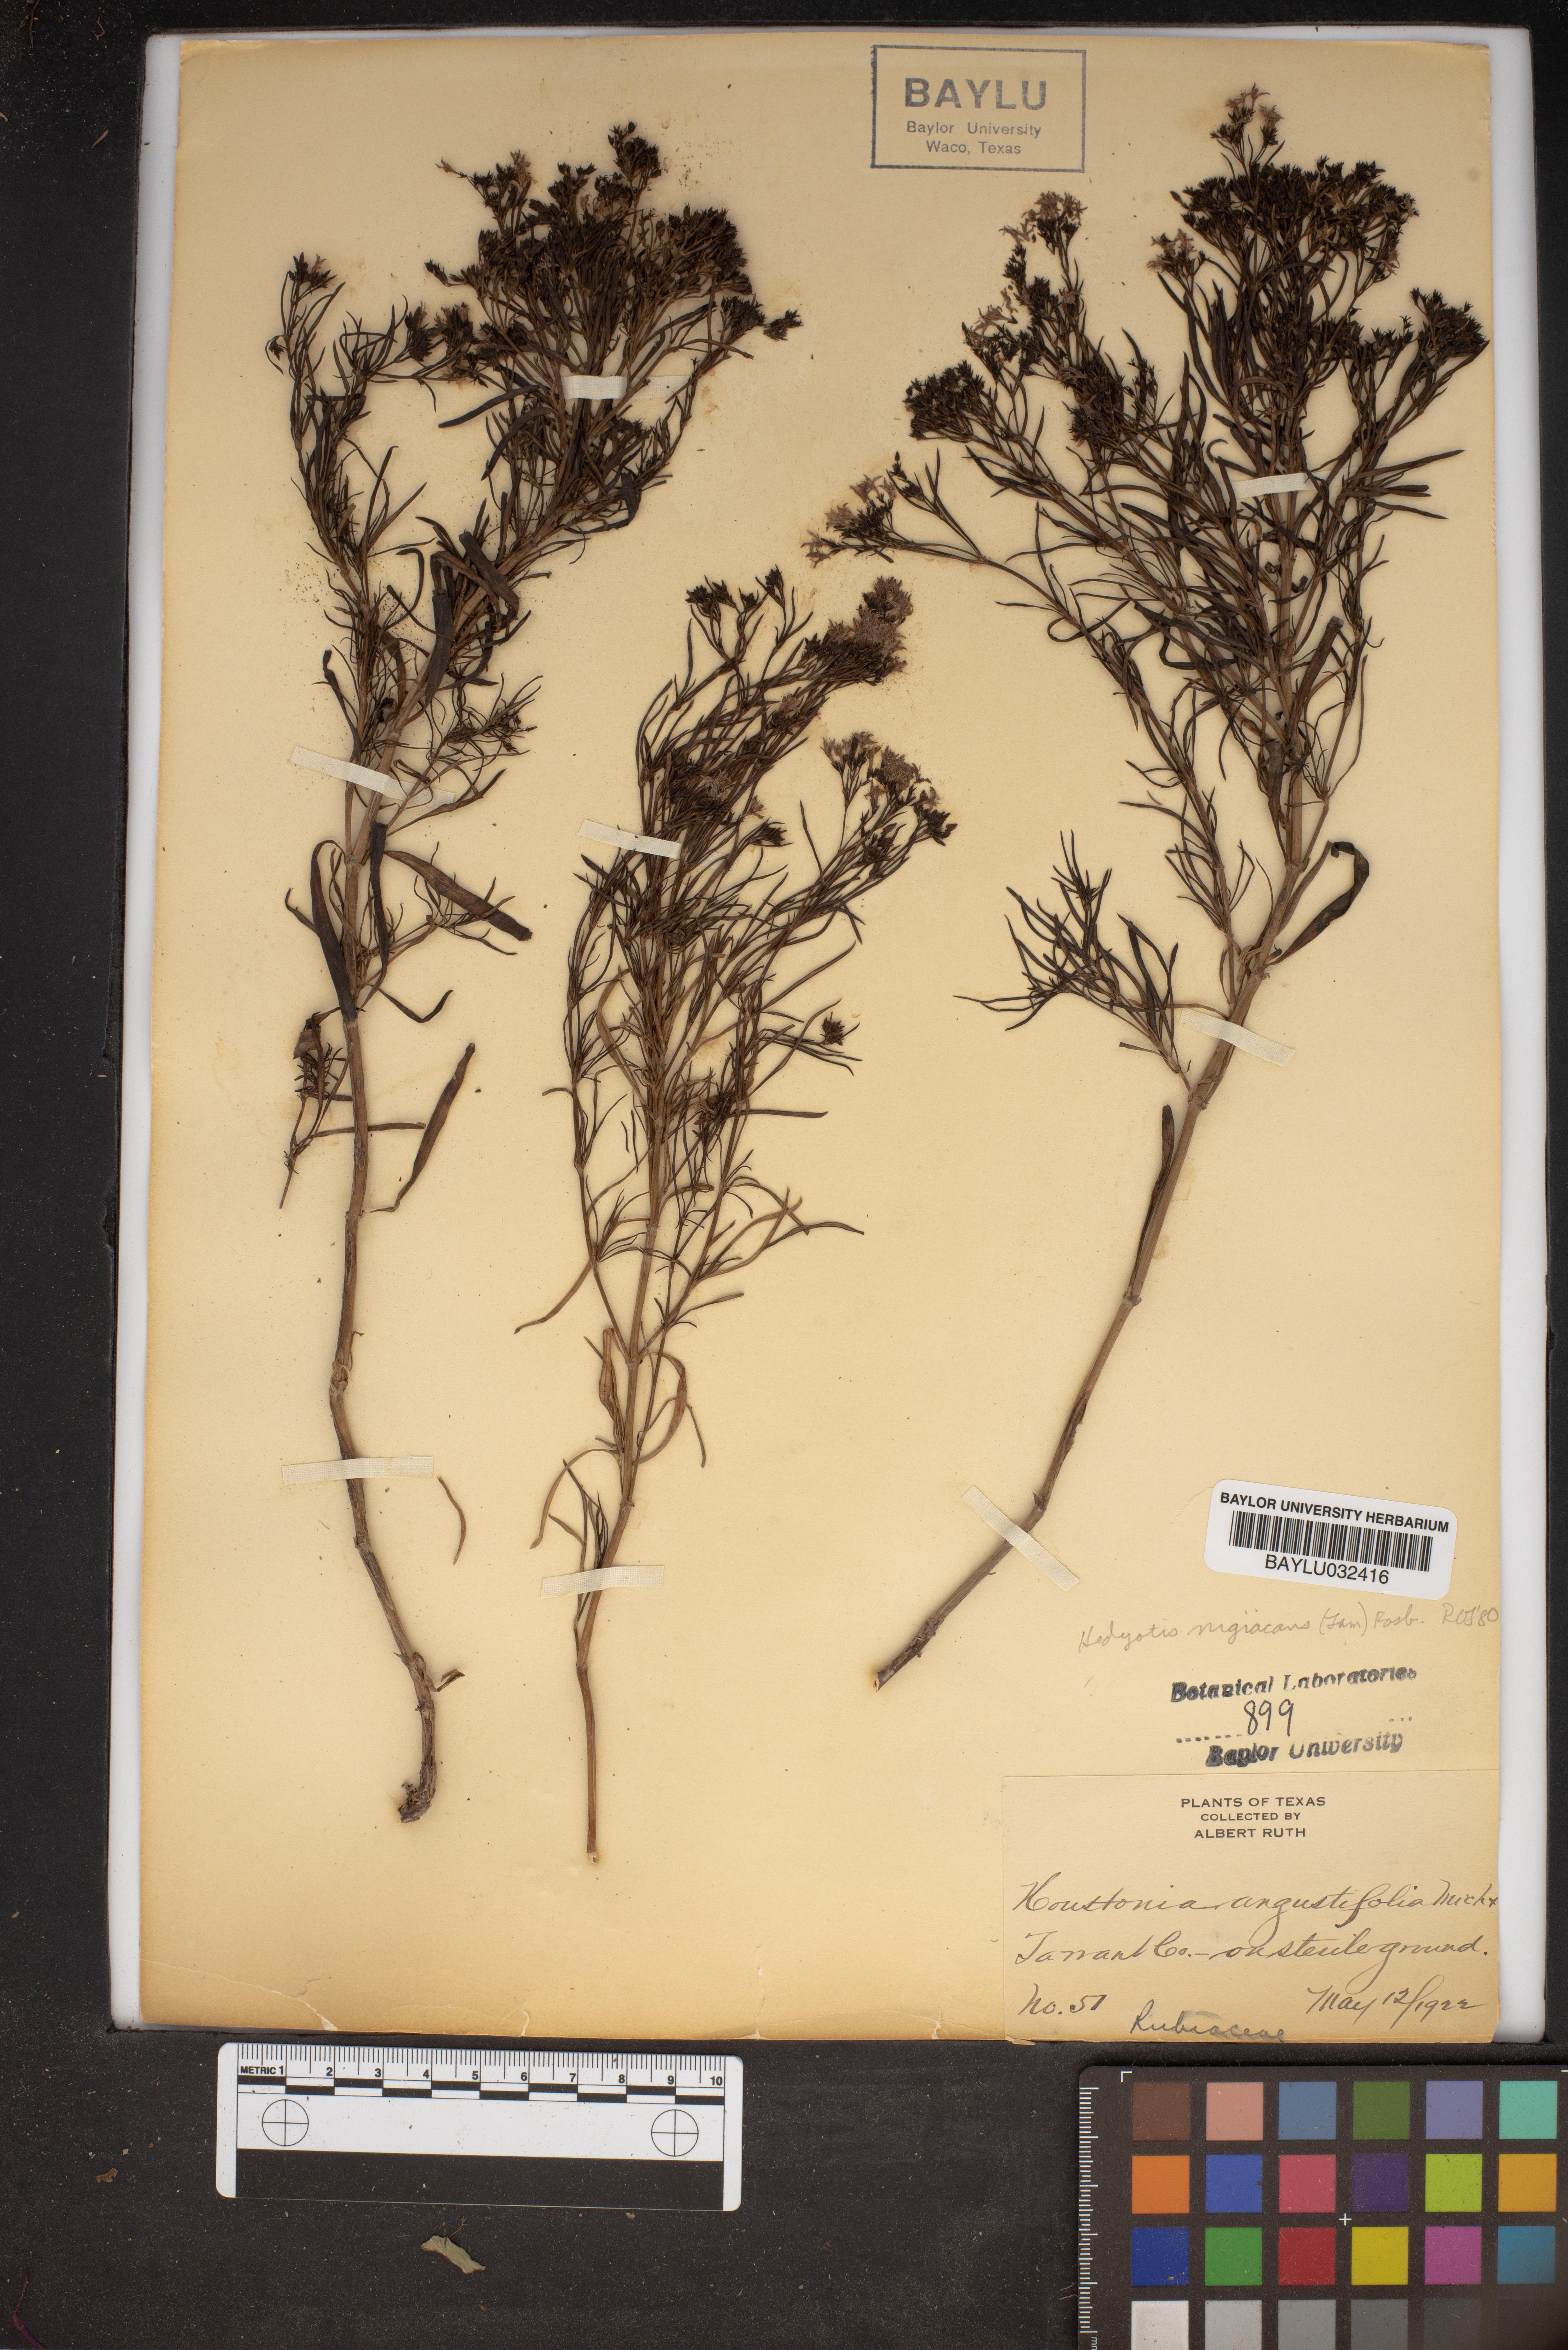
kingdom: Plantae
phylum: Tracheophyta
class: Magnoliopsida
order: Gentianales
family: Rubiaceae
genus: Stenaria
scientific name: Stenaria nigricans
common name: Diamondflowers
